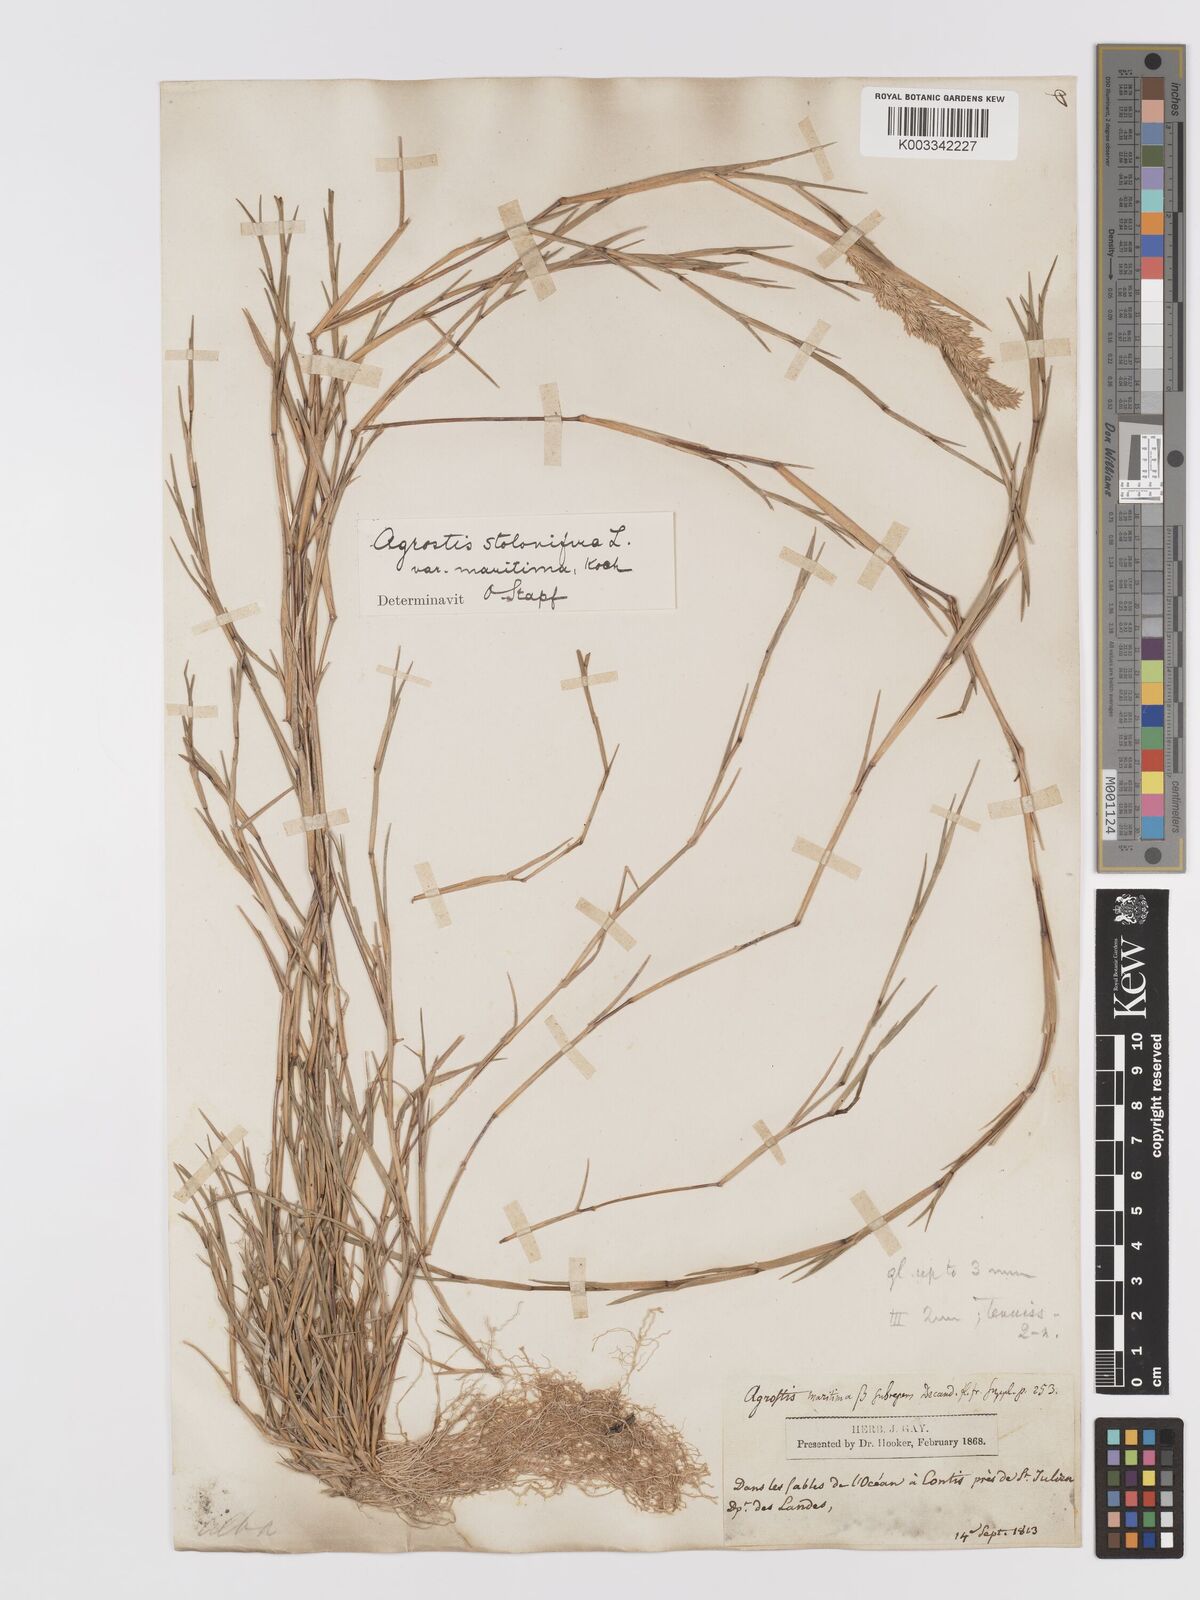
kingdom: Plantae
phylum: Tracheophyta
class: Liliopsida
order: Poales
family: Poaceae
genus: Agrostis
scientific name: Agrostis stolonifera
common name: Creeping bentgrass
